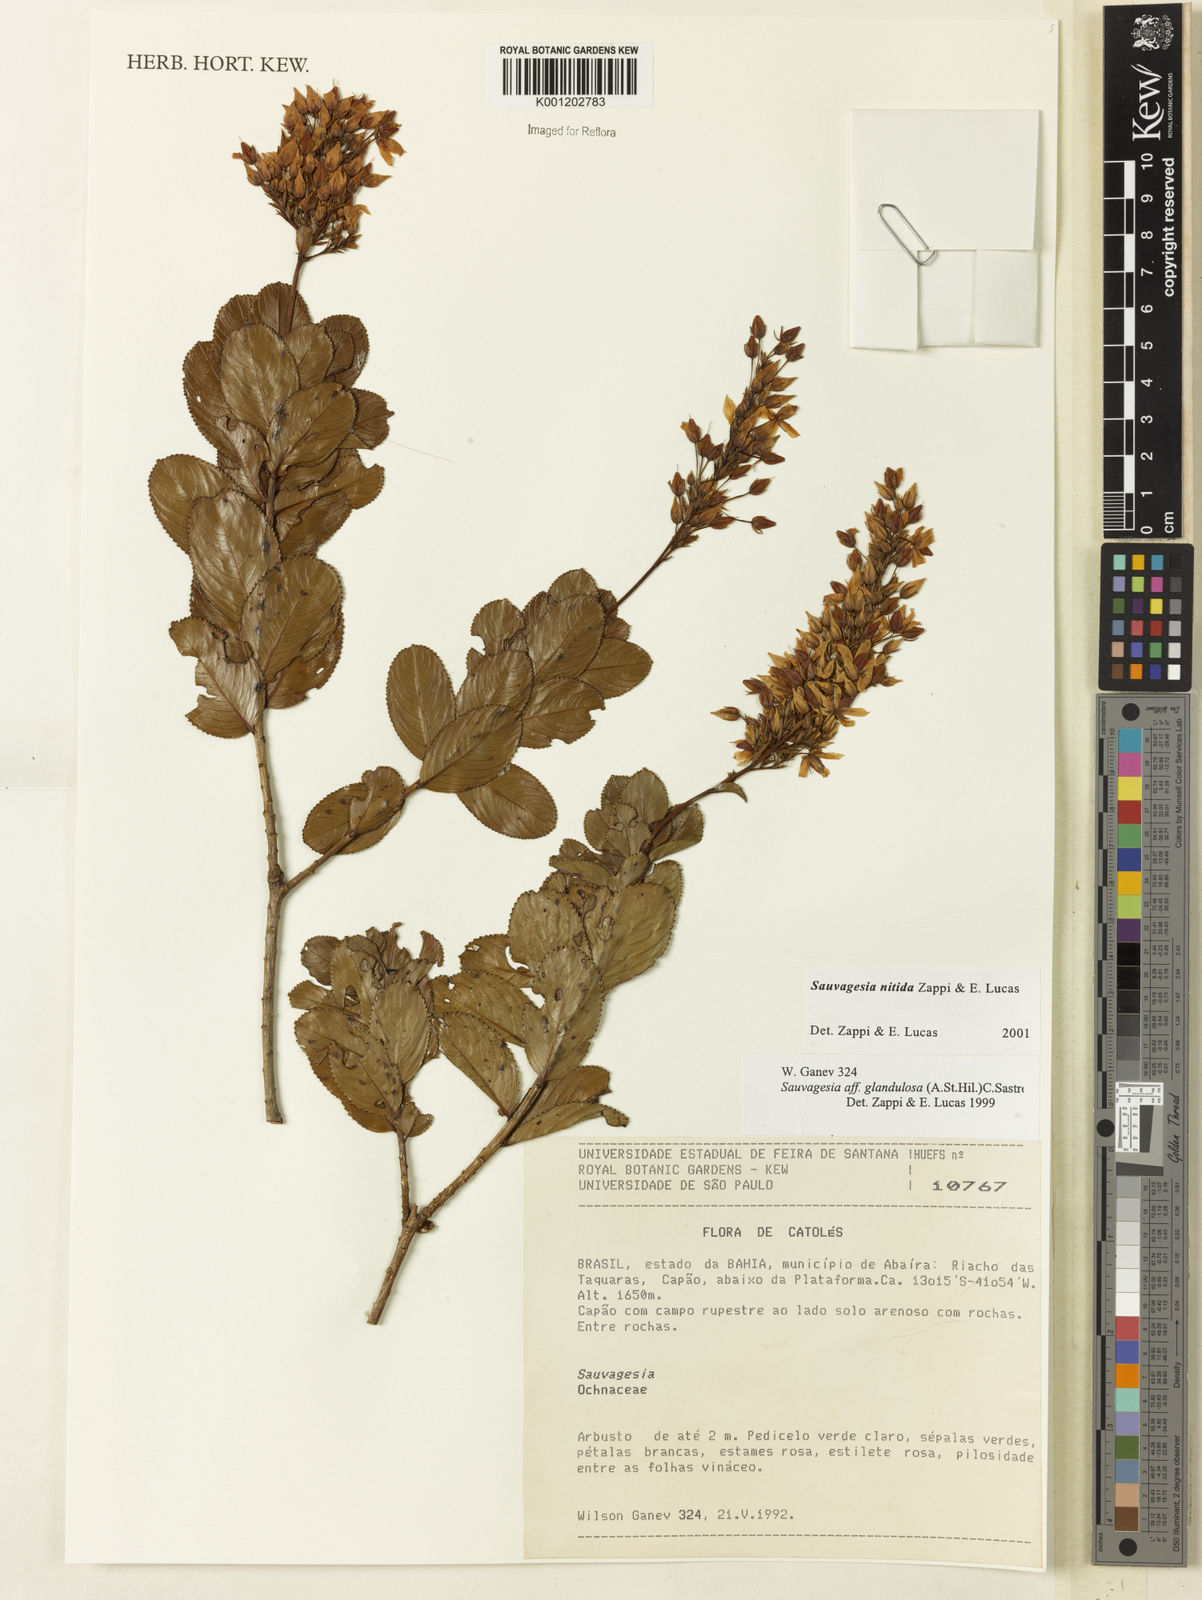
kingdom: Plantae
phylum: Tracheophyta
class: Magnoliopsida
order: Malpighiales
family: Ochnaceae
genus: Sauvagesia
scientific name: Sauvagesia nitida
